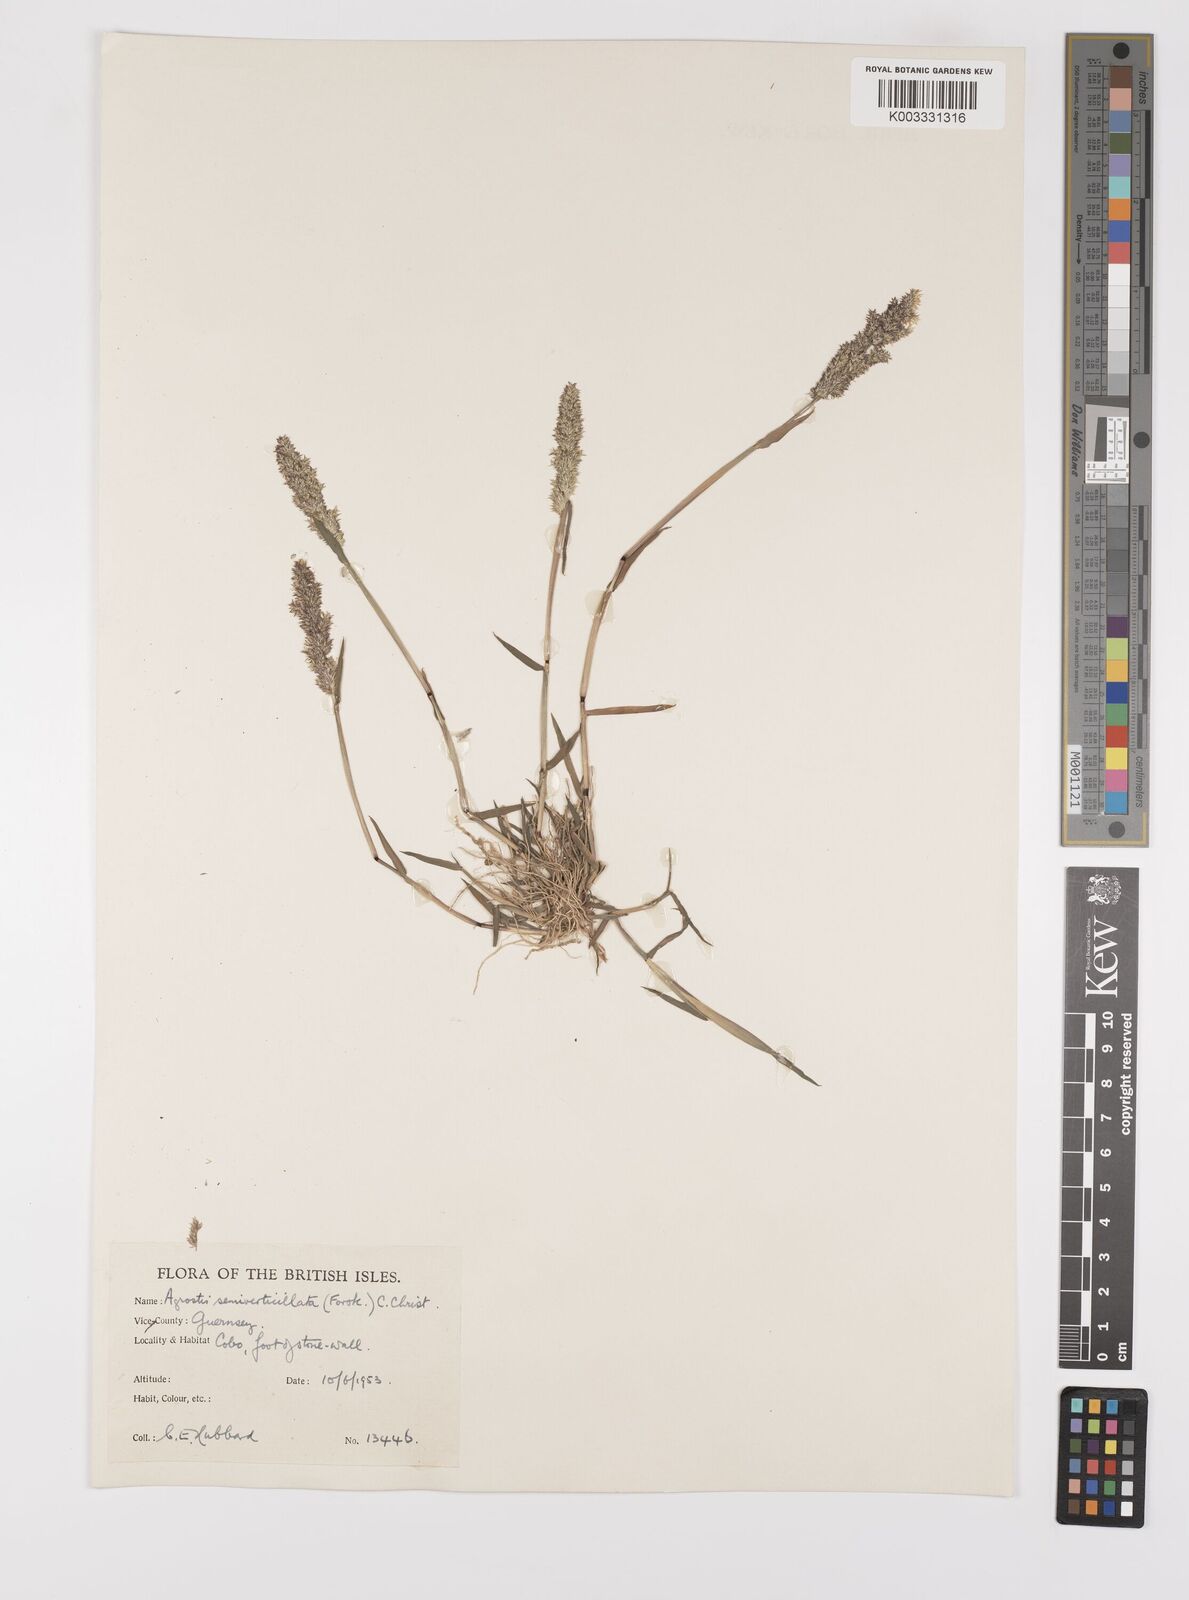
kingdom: Plantae
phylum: Tracheophyta
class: Liliopsida
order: Poales
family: Poaceae
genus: Polypogon
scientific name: Polypogon viridis
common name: Water bent
